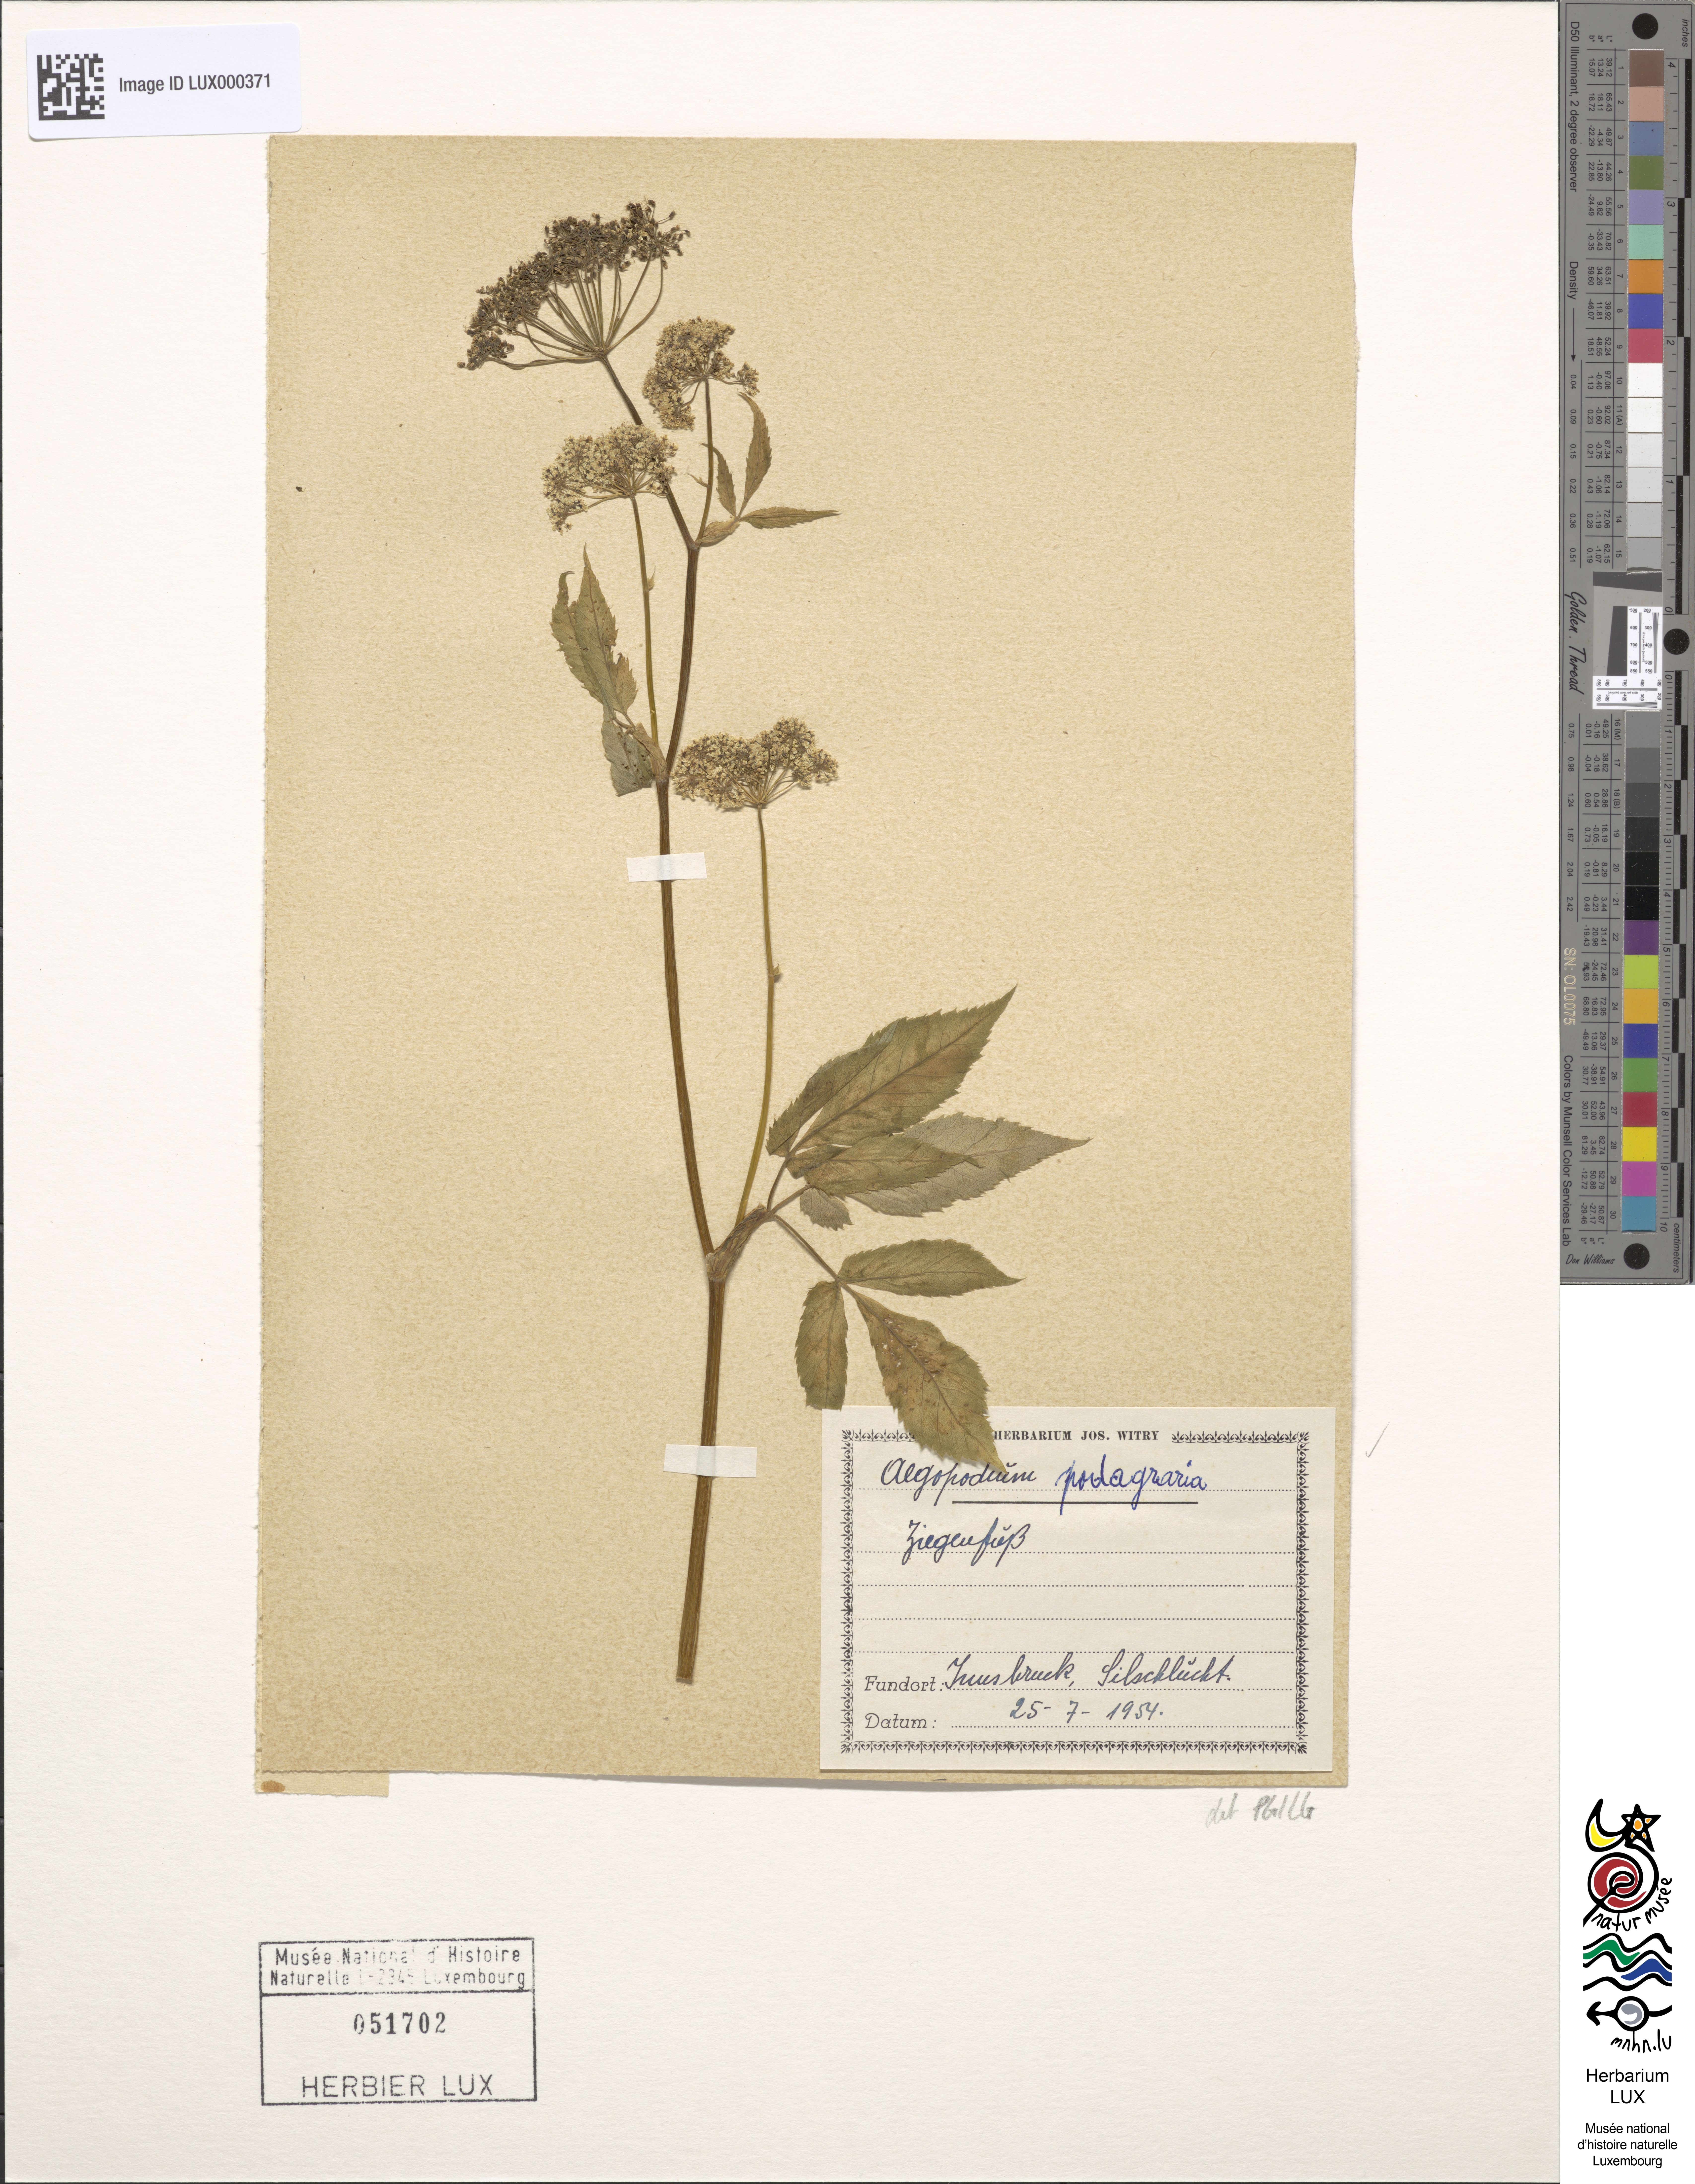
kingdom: Plantae
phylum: Tracheophyta
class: Magnoliopsida
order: Apiales
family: Apiaceae
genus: Aegopodium
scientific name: Aegopodium podagraria
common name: Ground-elder
